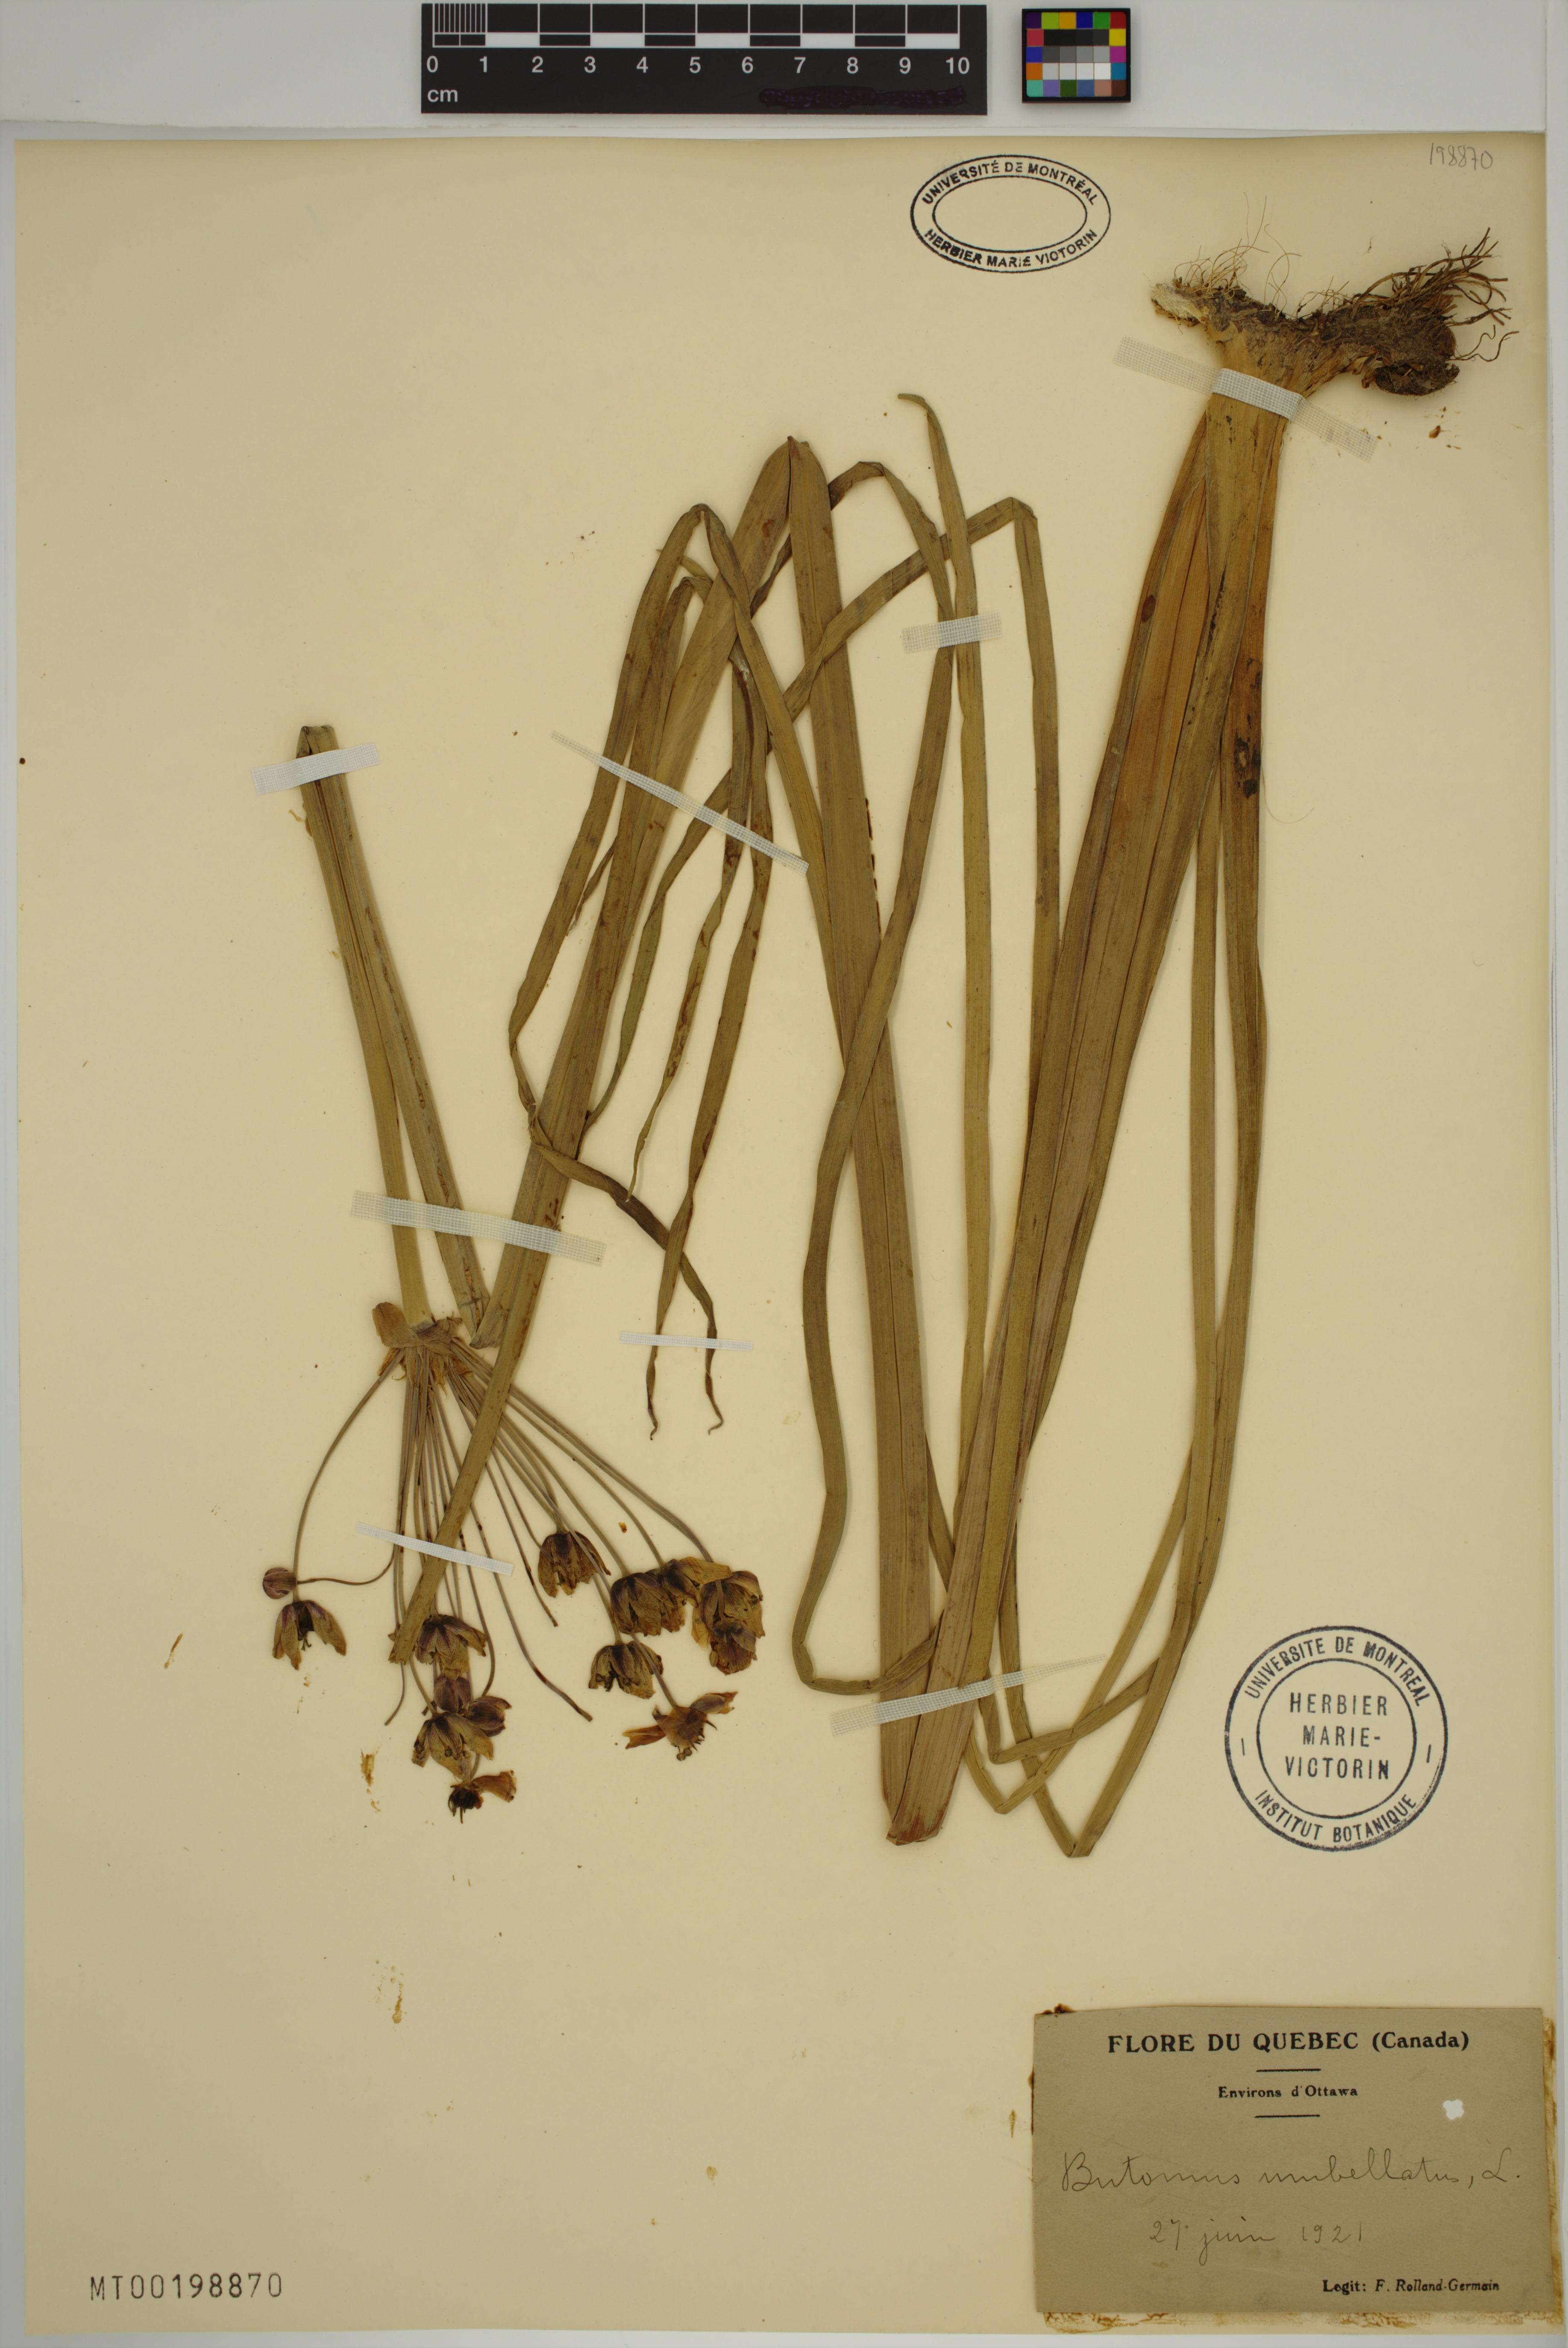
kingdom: Plantae
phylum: Tracheophyta
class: Liliopsida
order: Alismatales
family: Butomaceae
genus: Butomus
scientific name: Butomus umbellatus
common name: Flowering-rush
